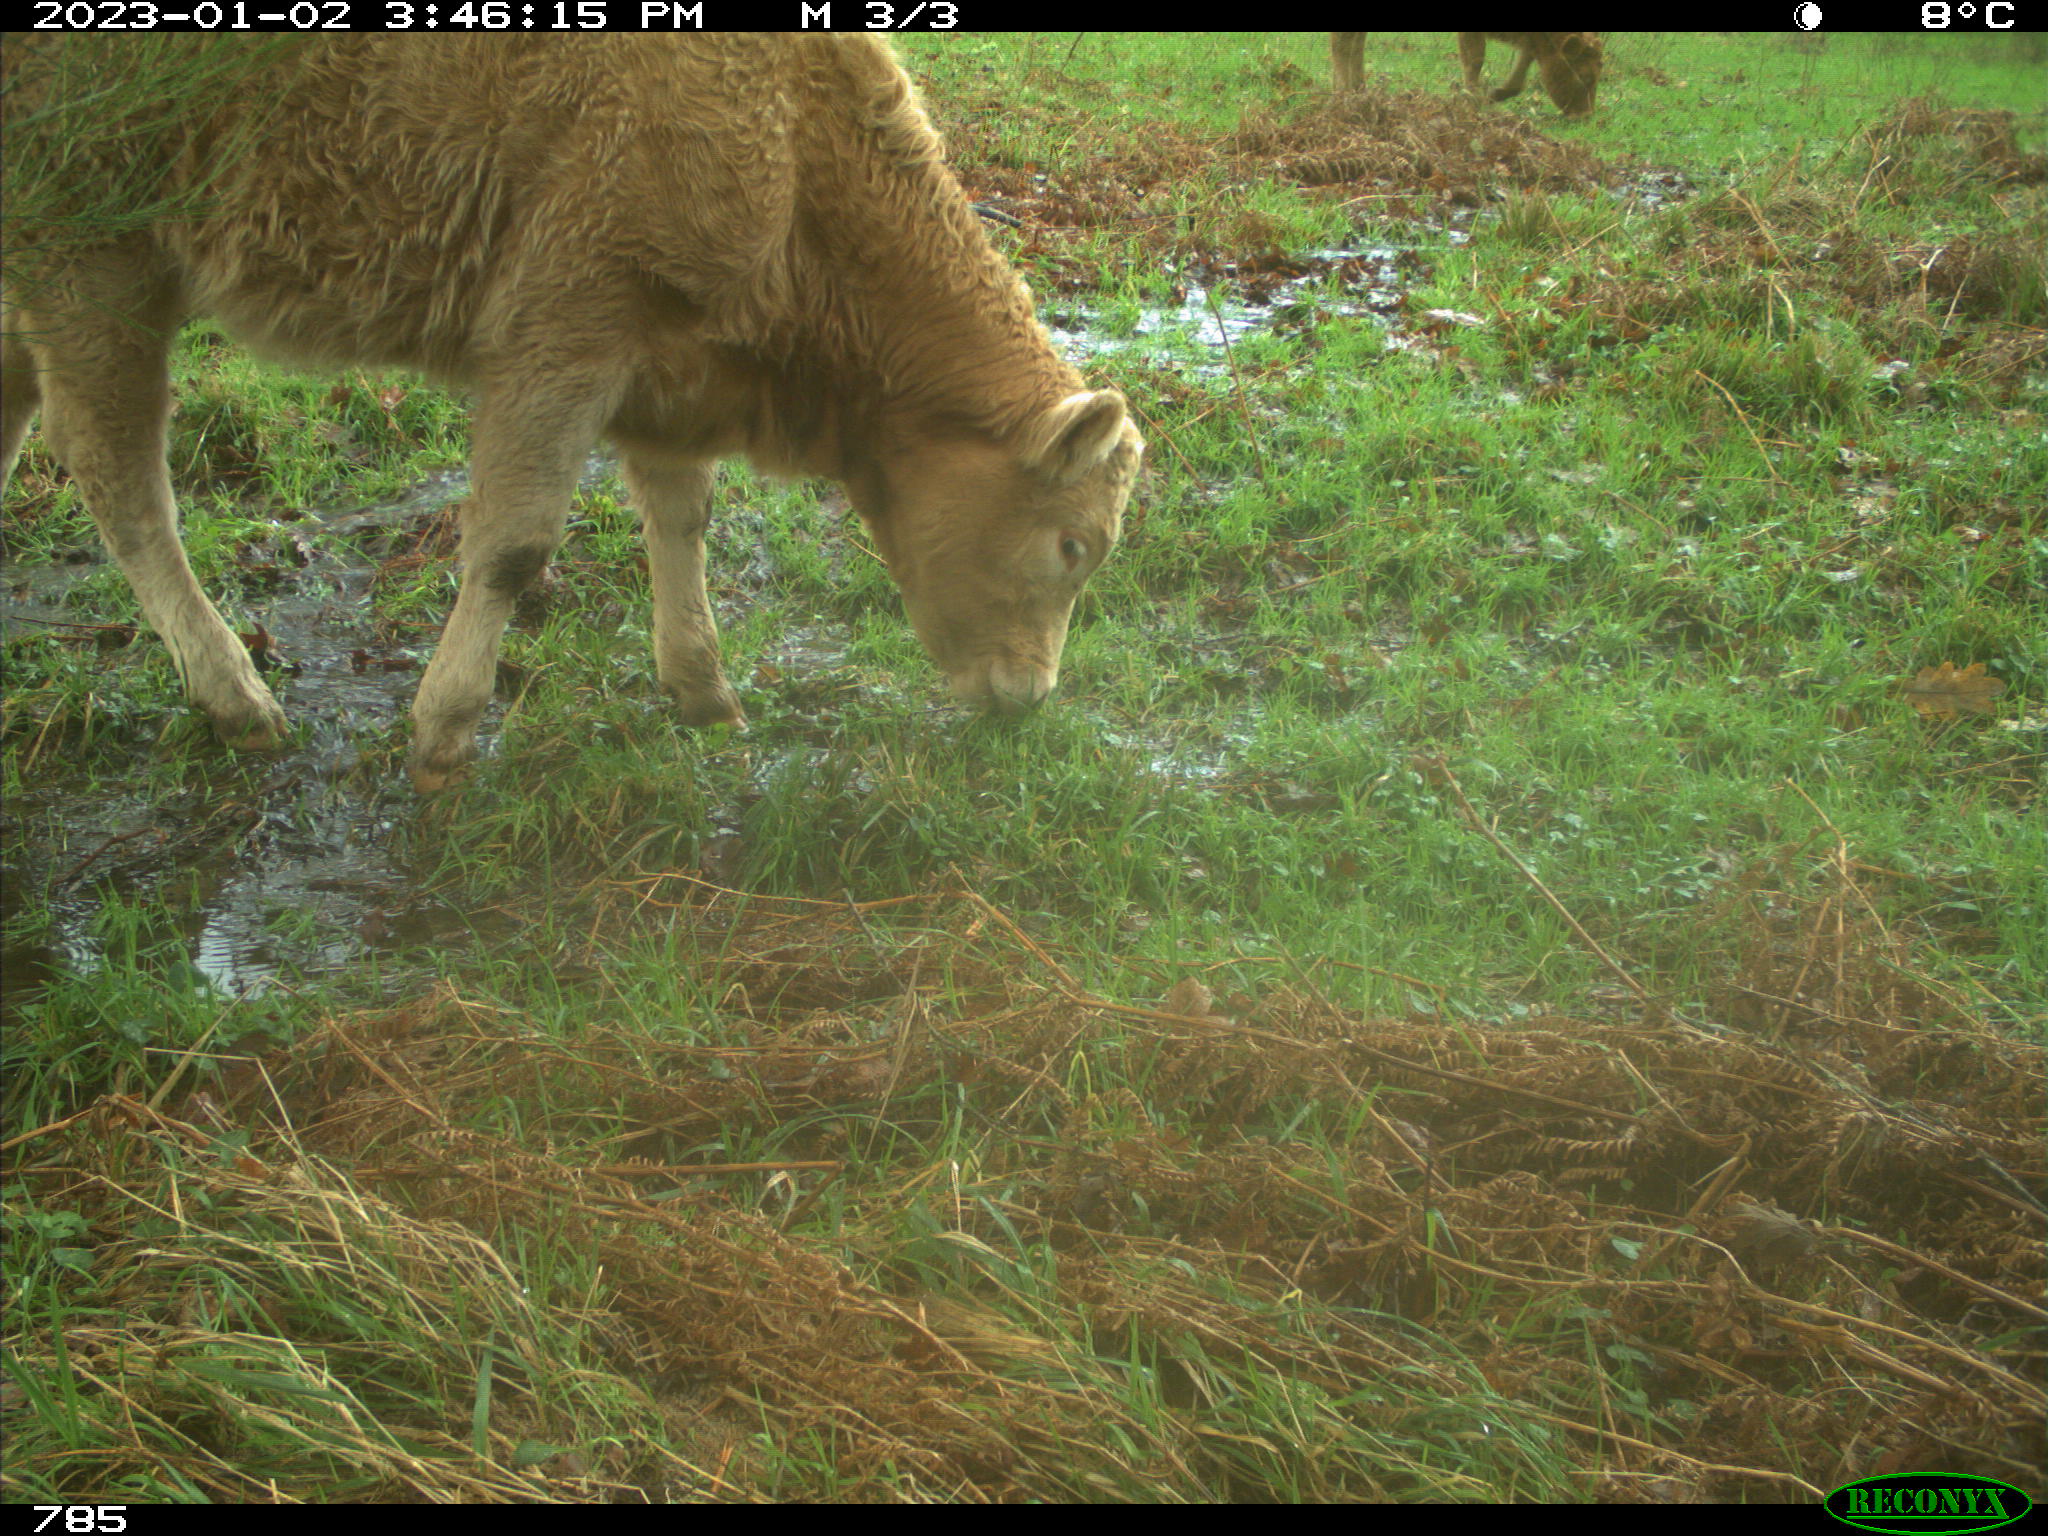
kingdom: Animalia
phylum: Chordata
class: Mammalia
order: Artiodactyla
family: Bovidae
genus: Bos
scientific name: Bos taurus
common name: Domesticated cattle
